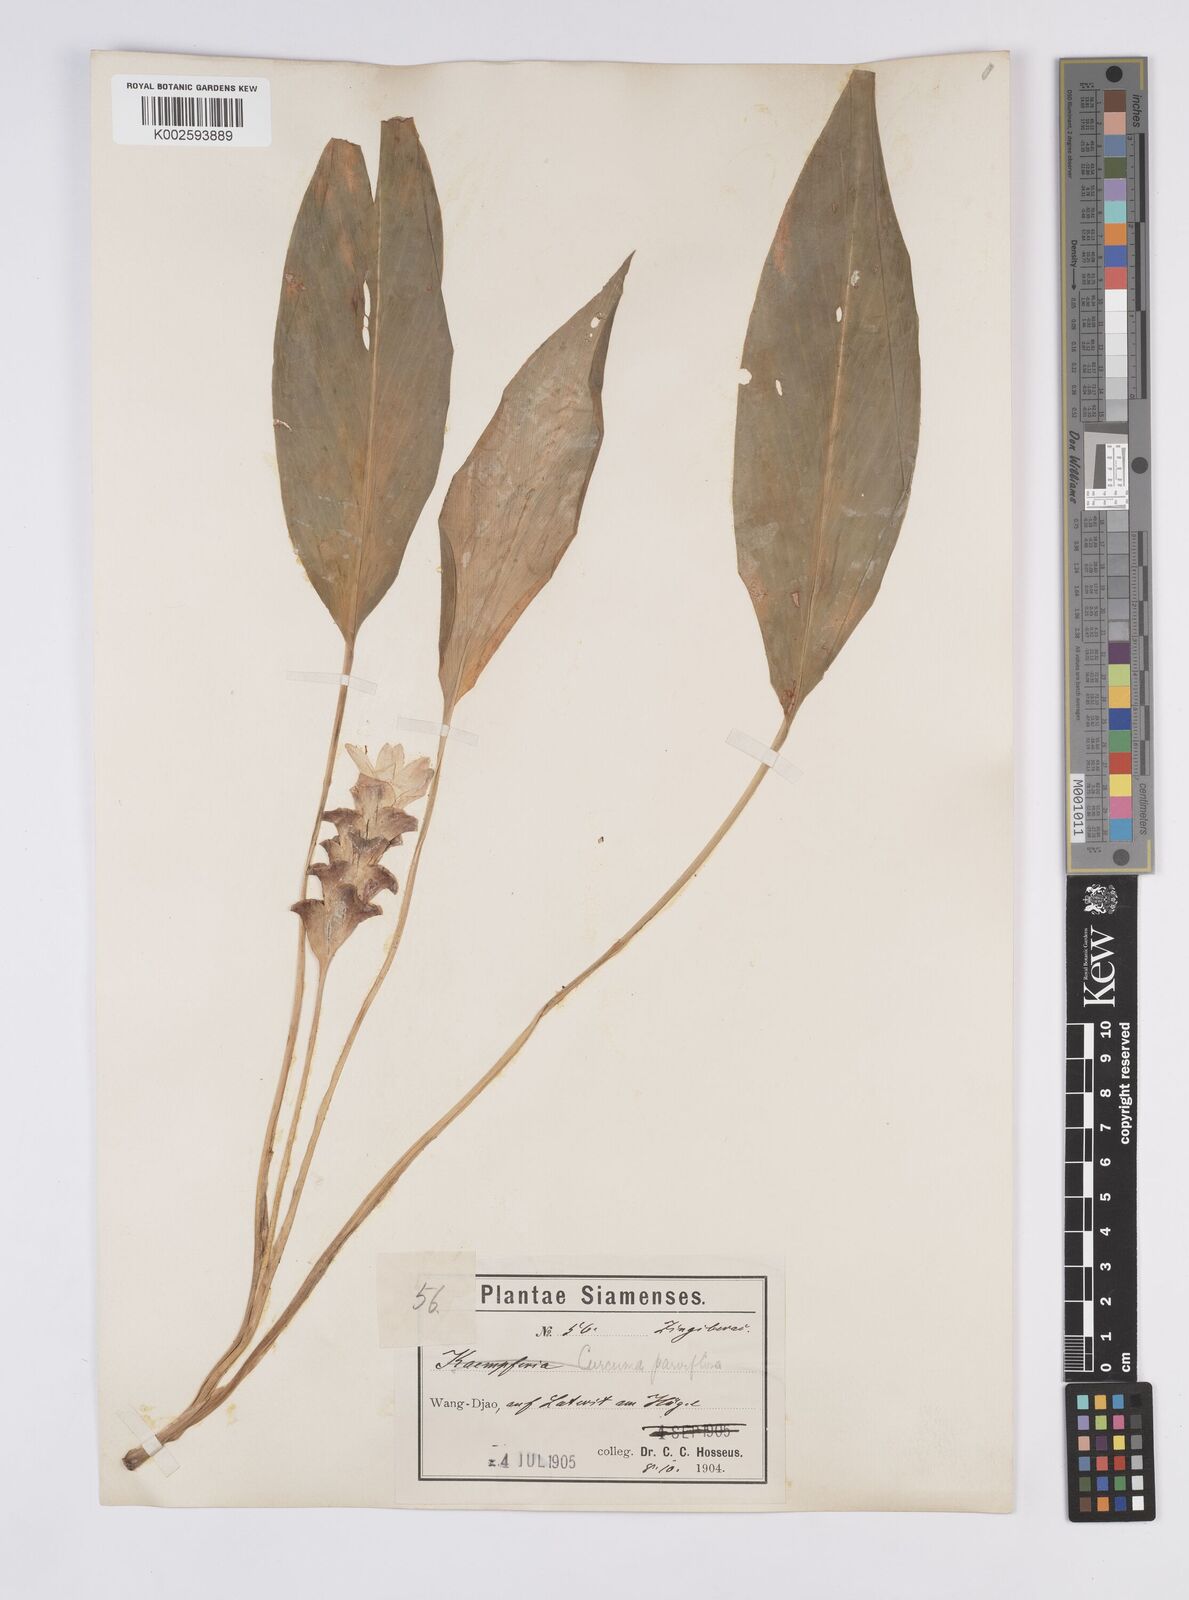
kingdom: Plantae
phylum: Tracheophyta
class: Liliopsida
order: Zingiberales
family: Zingiberaceae
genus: Curcuma
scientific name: Curcuma parviflora
